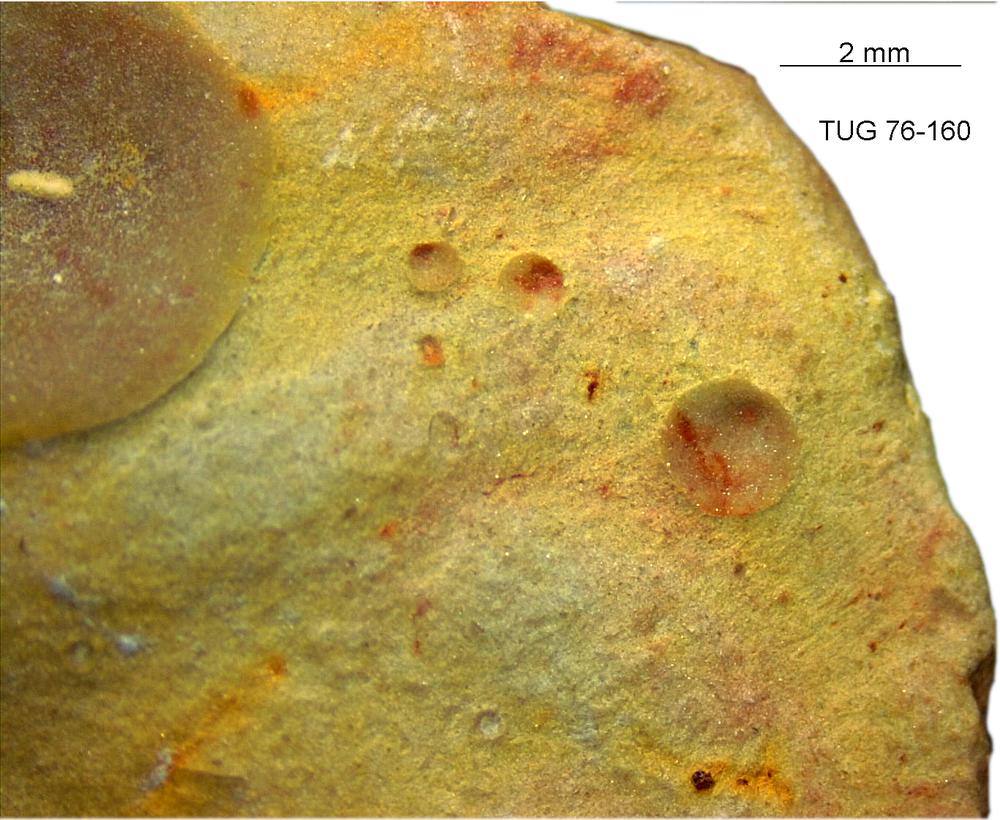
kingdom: Animalia
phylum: Brachiopoda
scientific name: Brachiopoda
